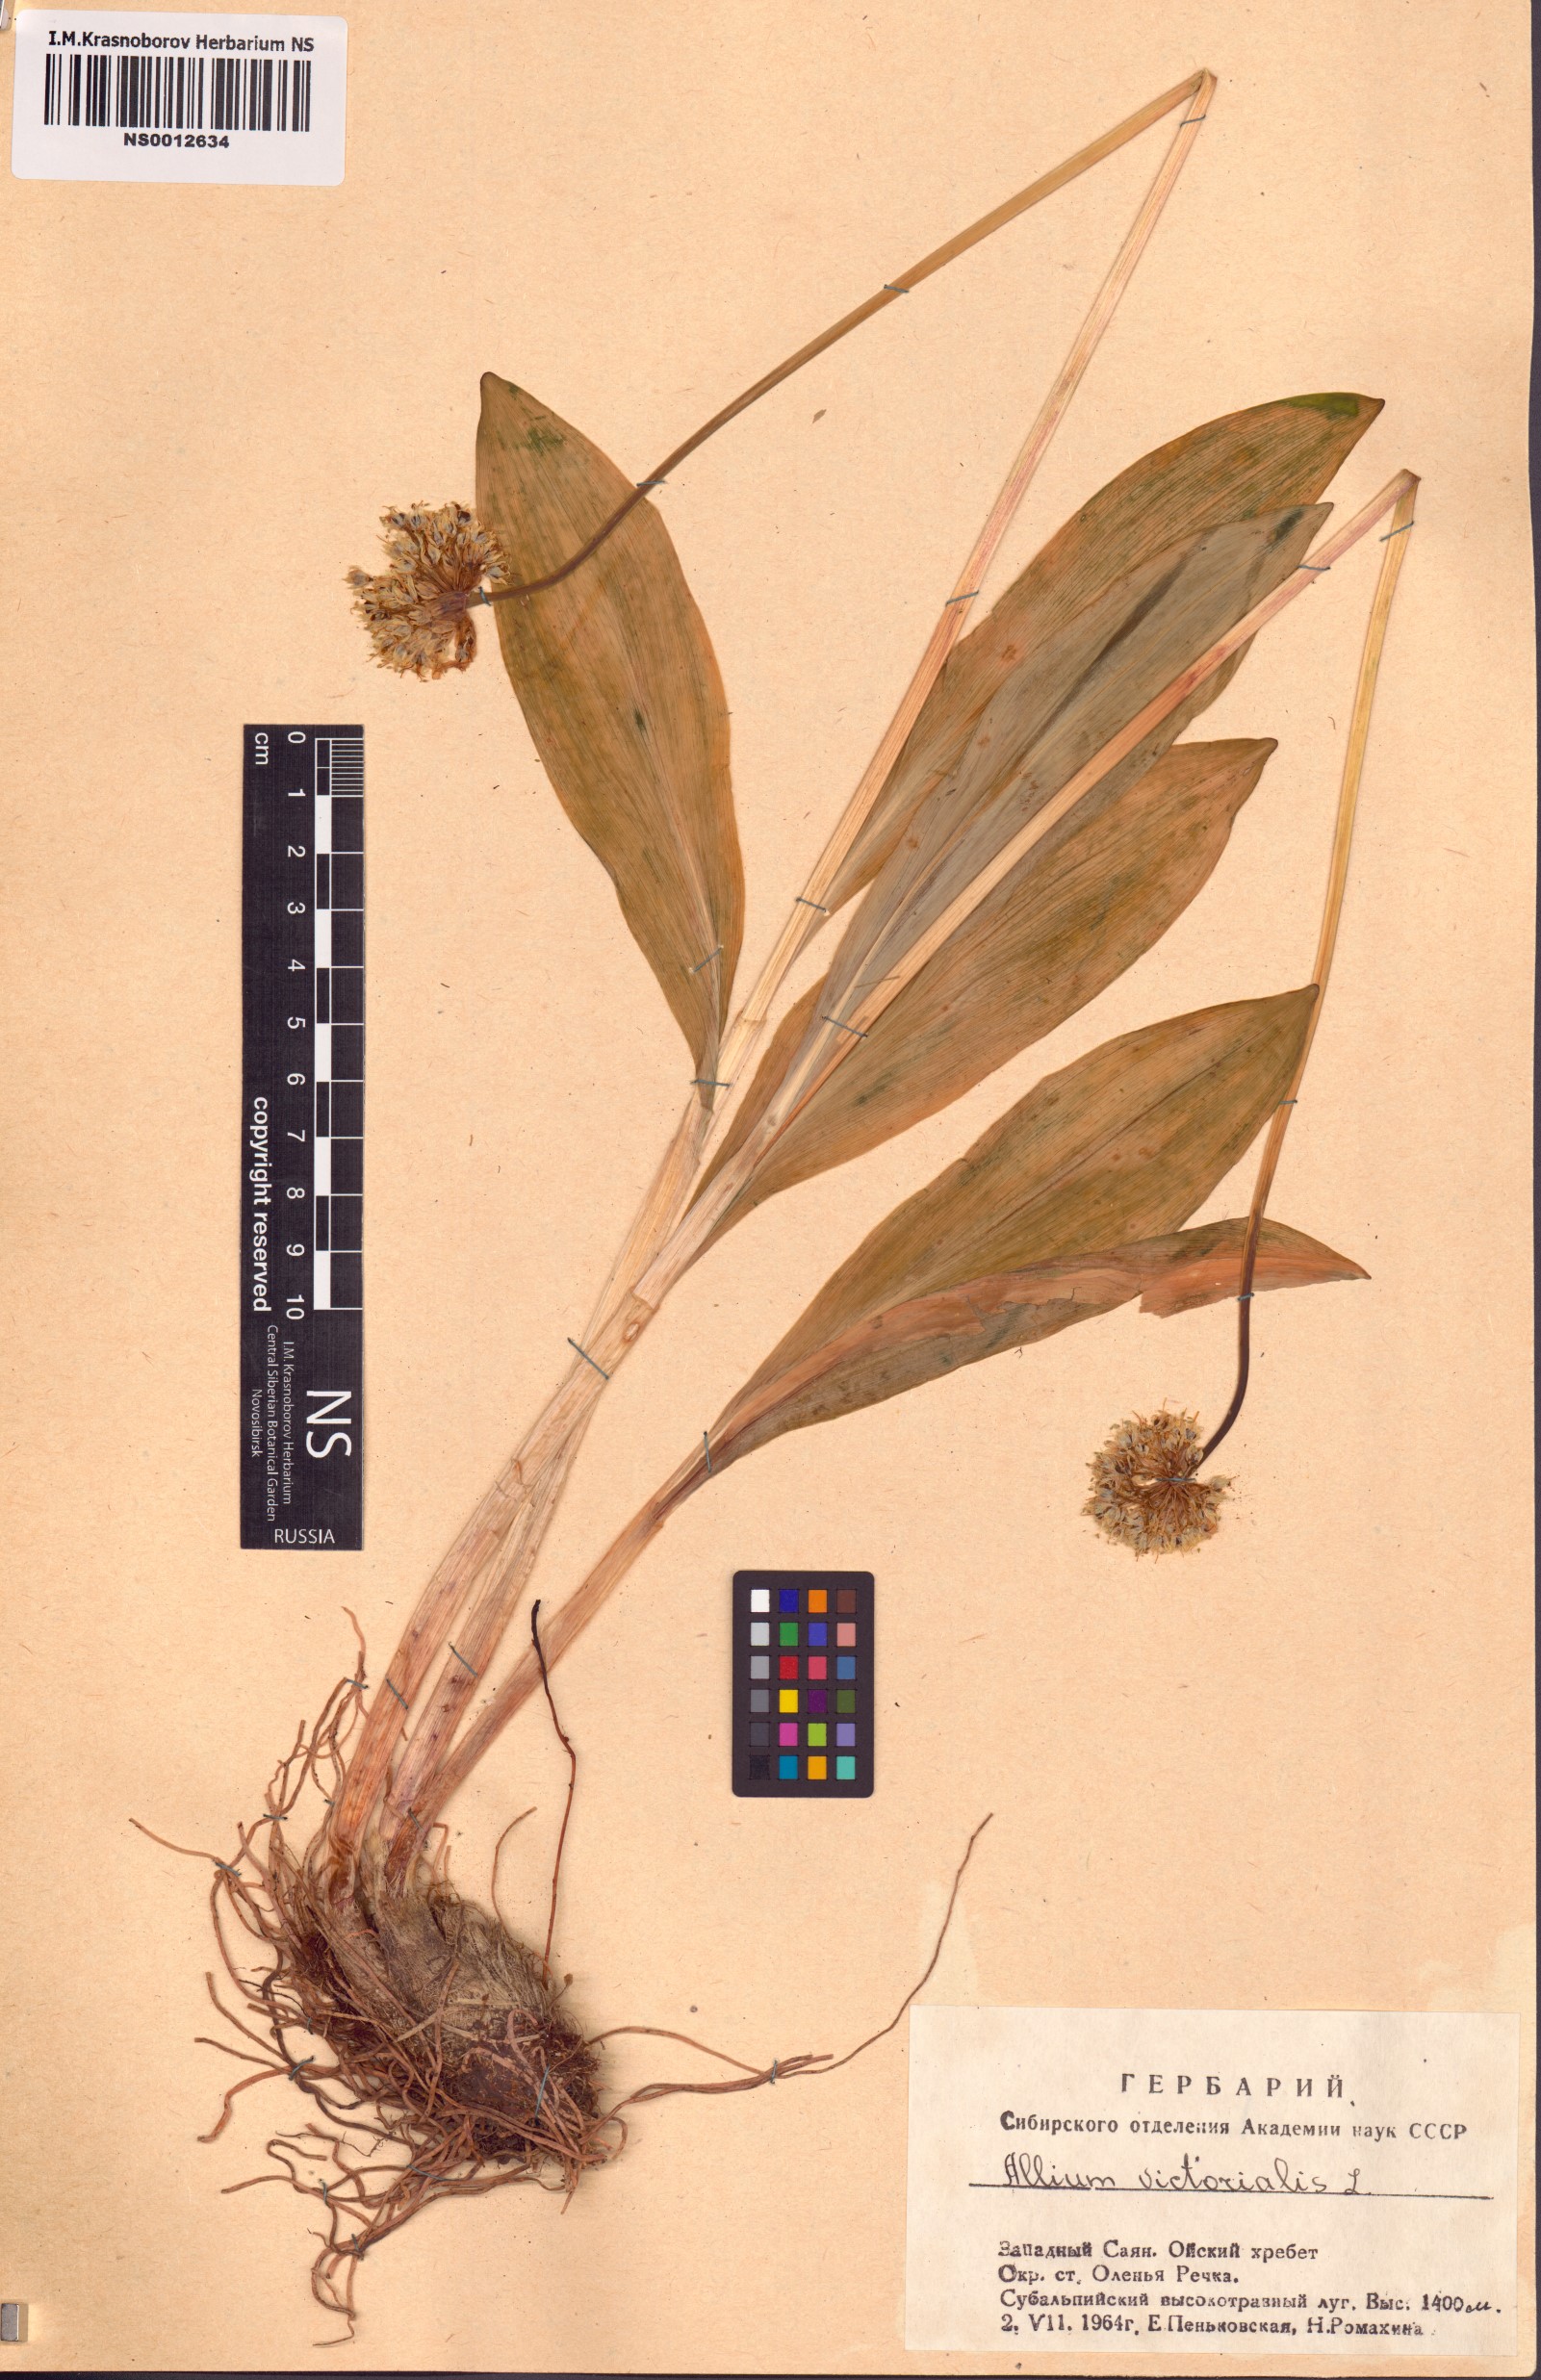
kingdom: Plantae
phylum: Tracheophyta
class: Liliopsida
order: Asparagales
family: Amaryllidaceae
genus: Allium
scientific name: Allium microdictyon
